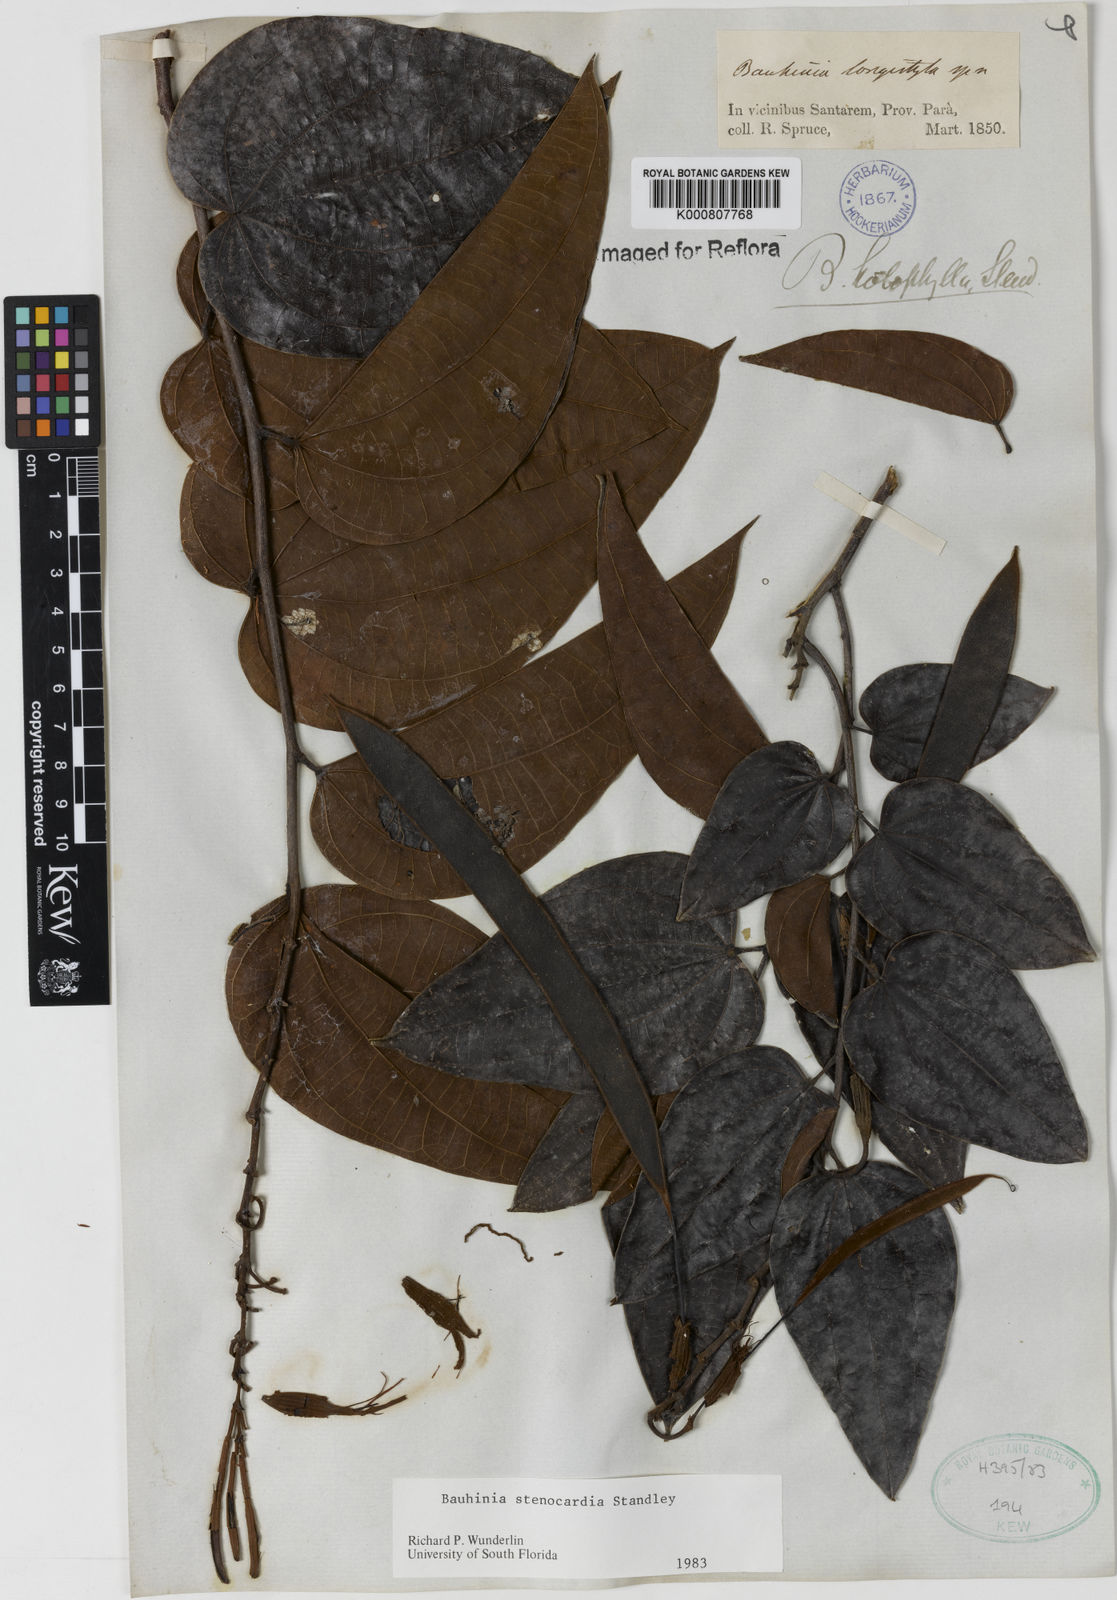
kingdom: Plantae
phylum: Tracheophyta
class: Magnoliopsida
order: Fabales
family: Fabaceae
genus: Bauhinia
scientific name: Bauhinia longicuspis
